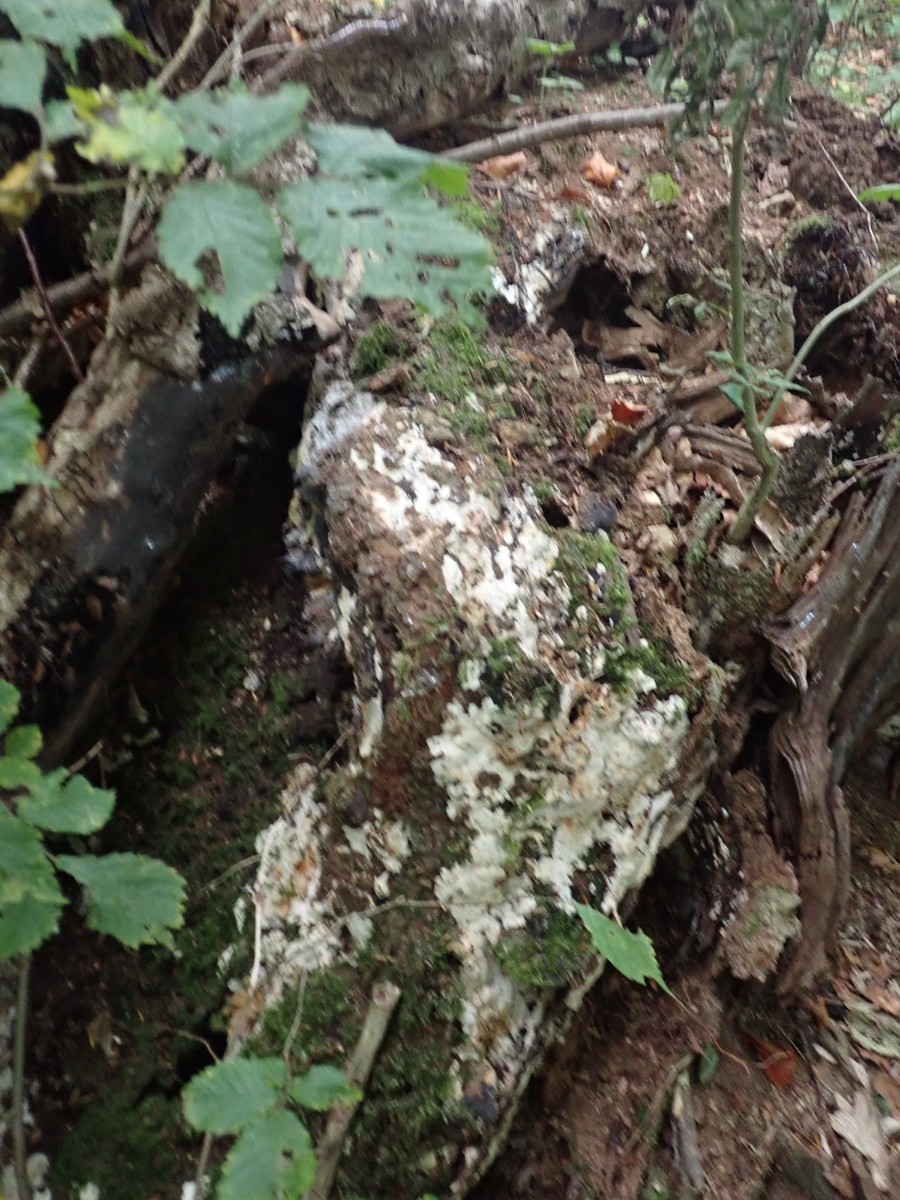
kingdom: Fungi
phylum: Basidiomycota
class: Agaricomycetes
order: Polyporales
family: Meruliaceae
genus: Physisporinus
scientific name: Physisporinus
